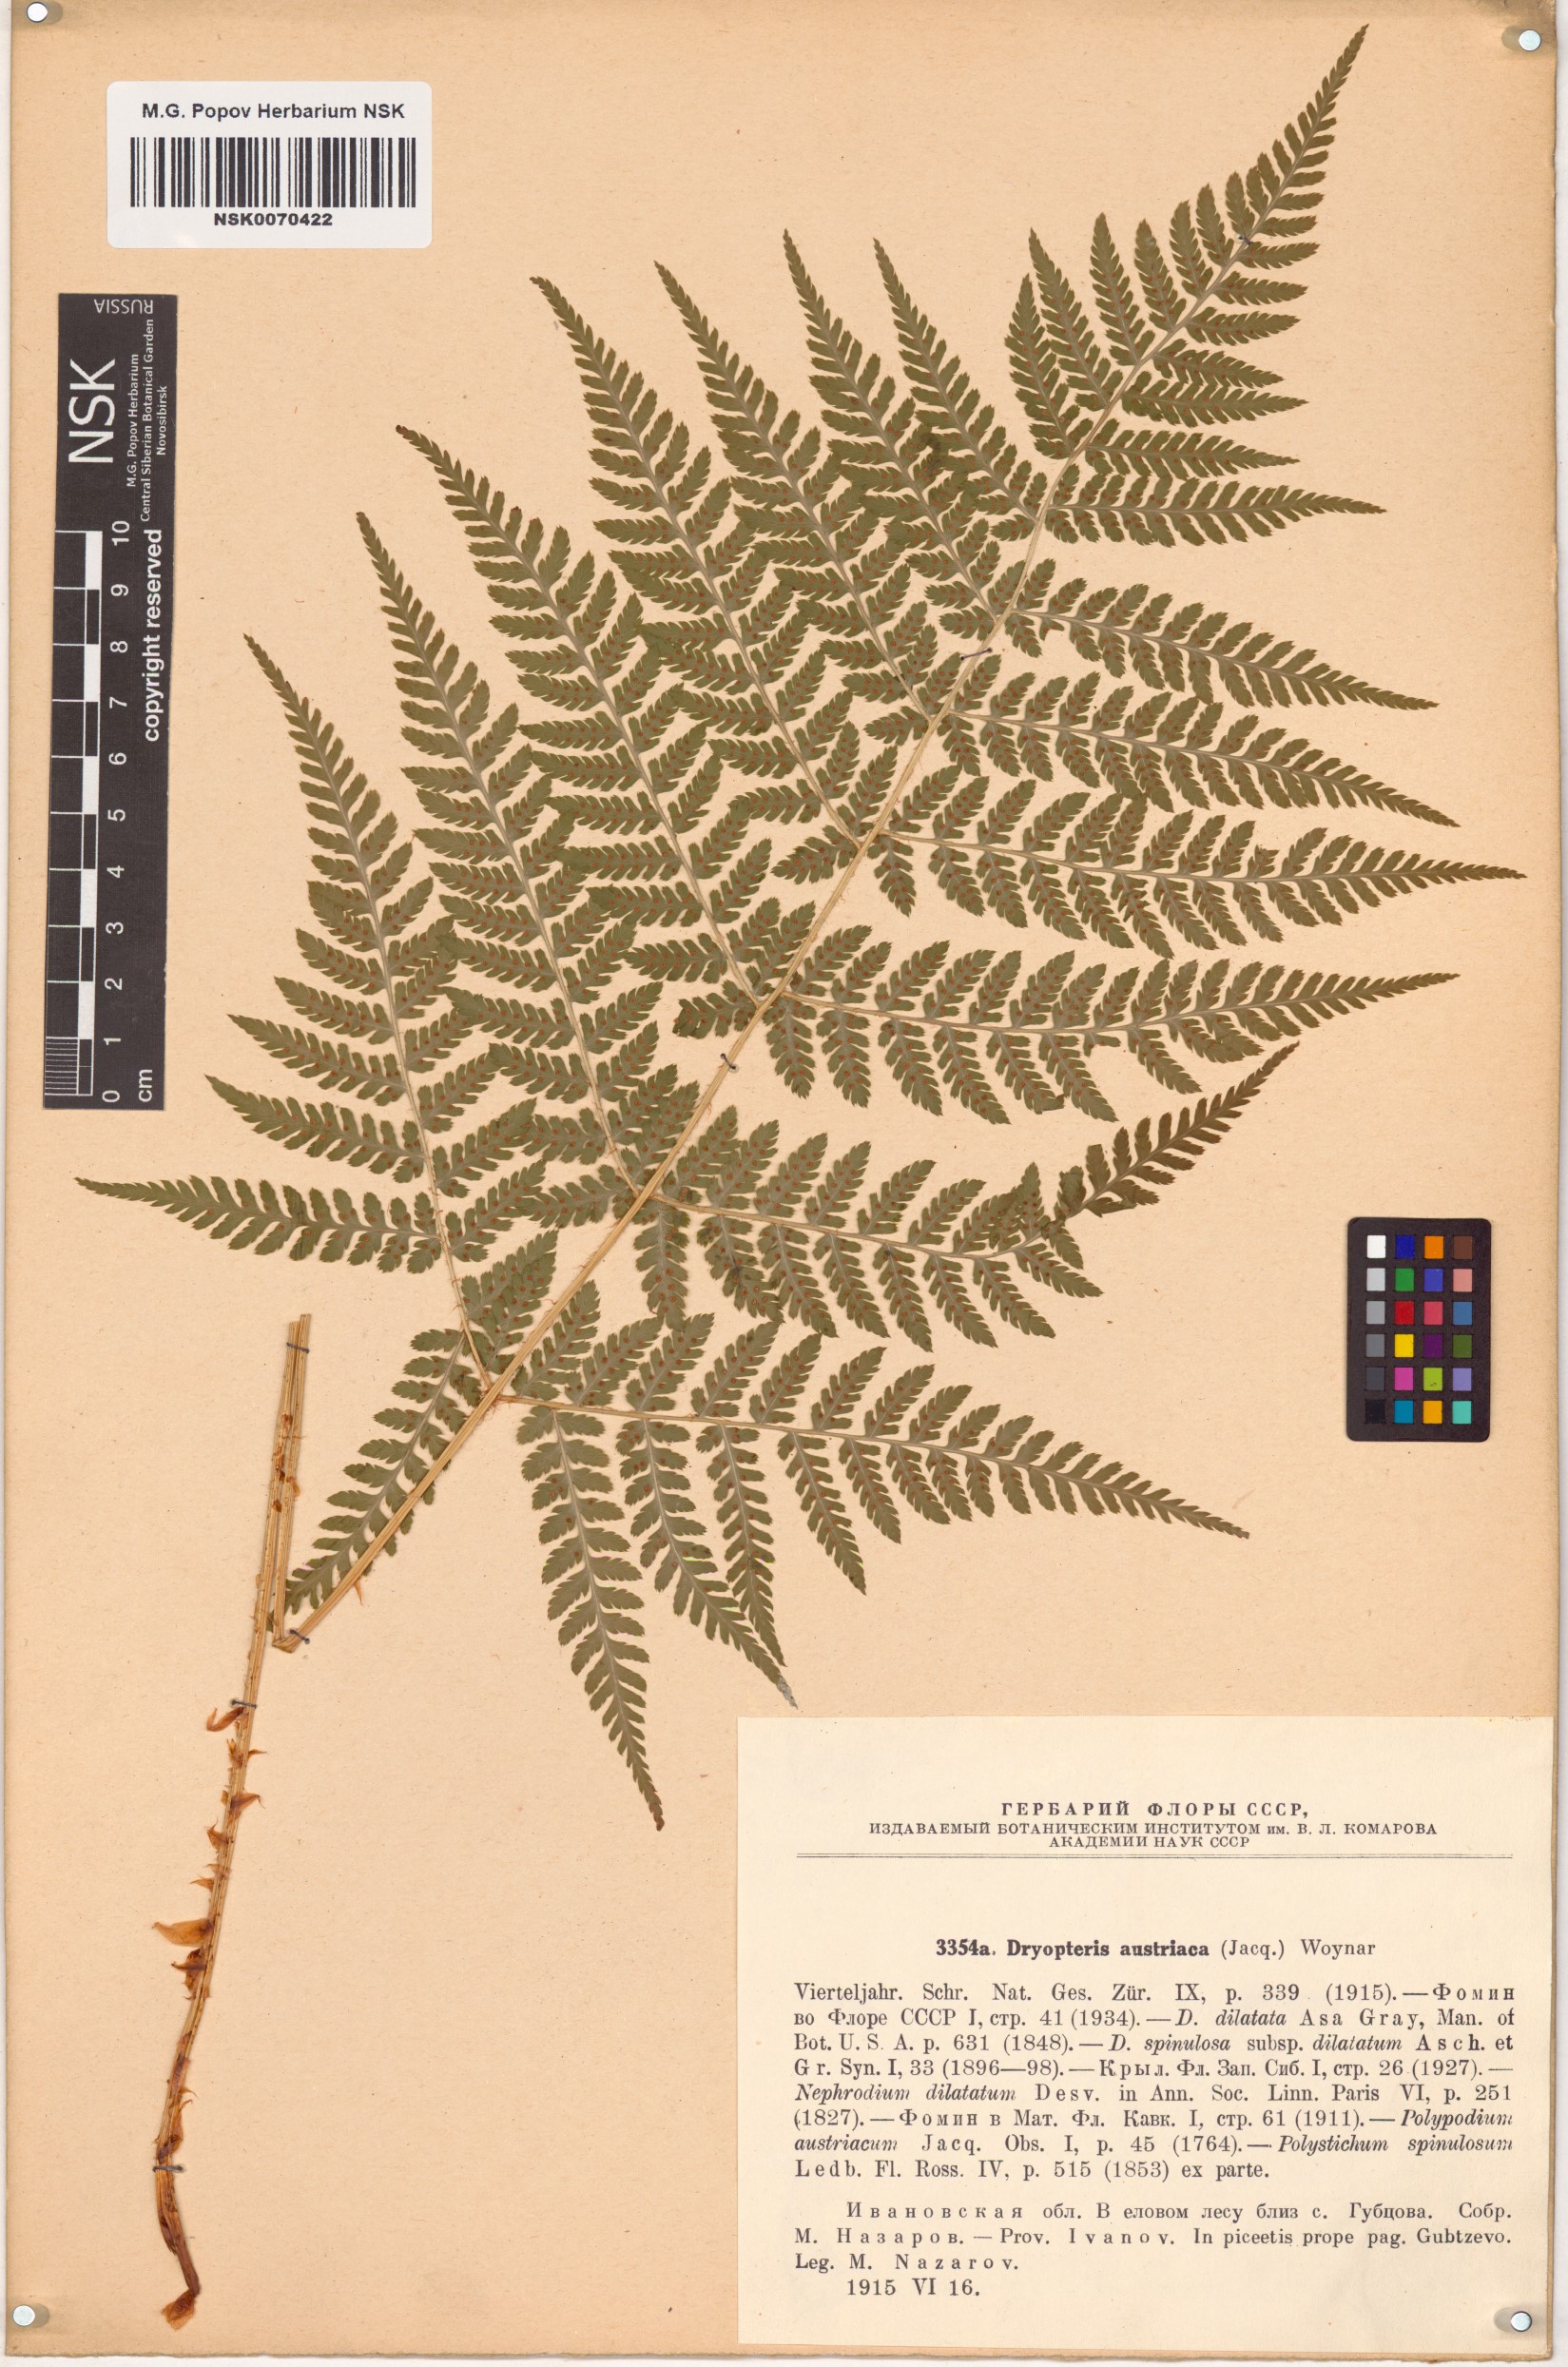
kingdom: Plantae
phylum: Tracheophyta
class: Polypodiopsida
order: Polypodiales
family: Dryopteridaceae
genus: Dryopteris
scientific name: Dryopteris dilatata
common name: Broad buckler-fern
